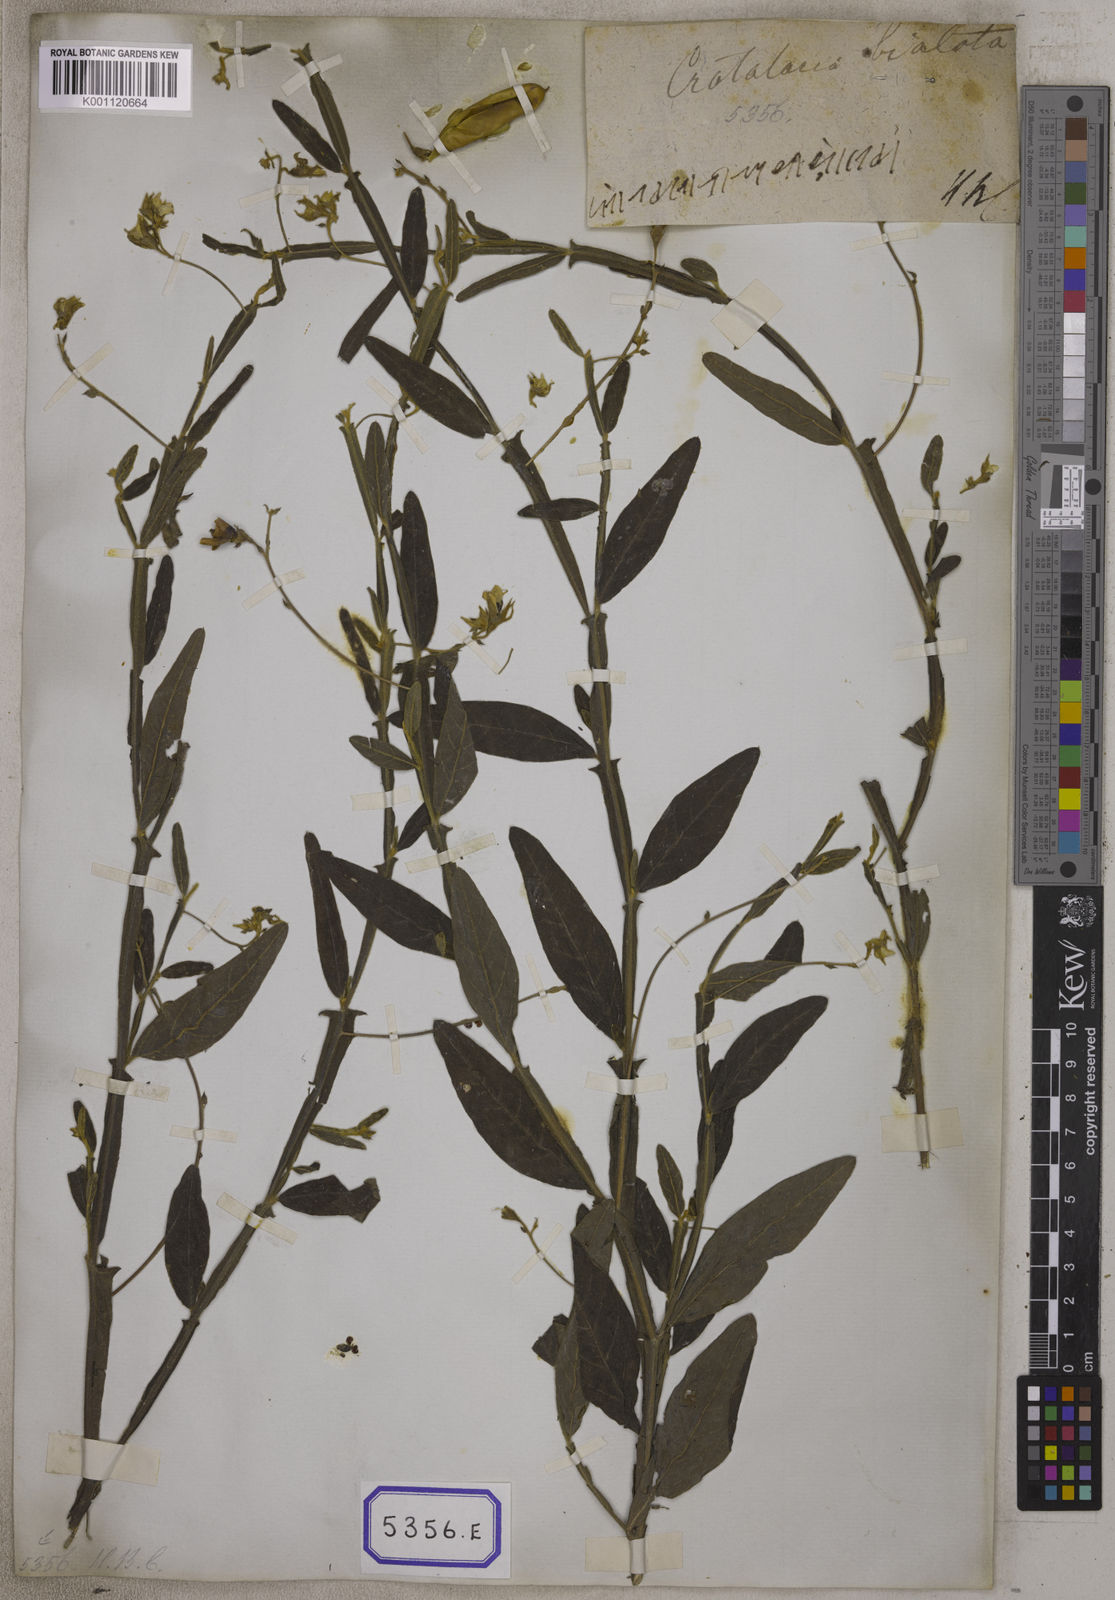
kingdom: Plantae
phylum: Tracheophyta
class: Magnoliopsida
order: Fabales
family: Fabaceae
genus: Crotalaria
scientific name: Crotalaria alata
